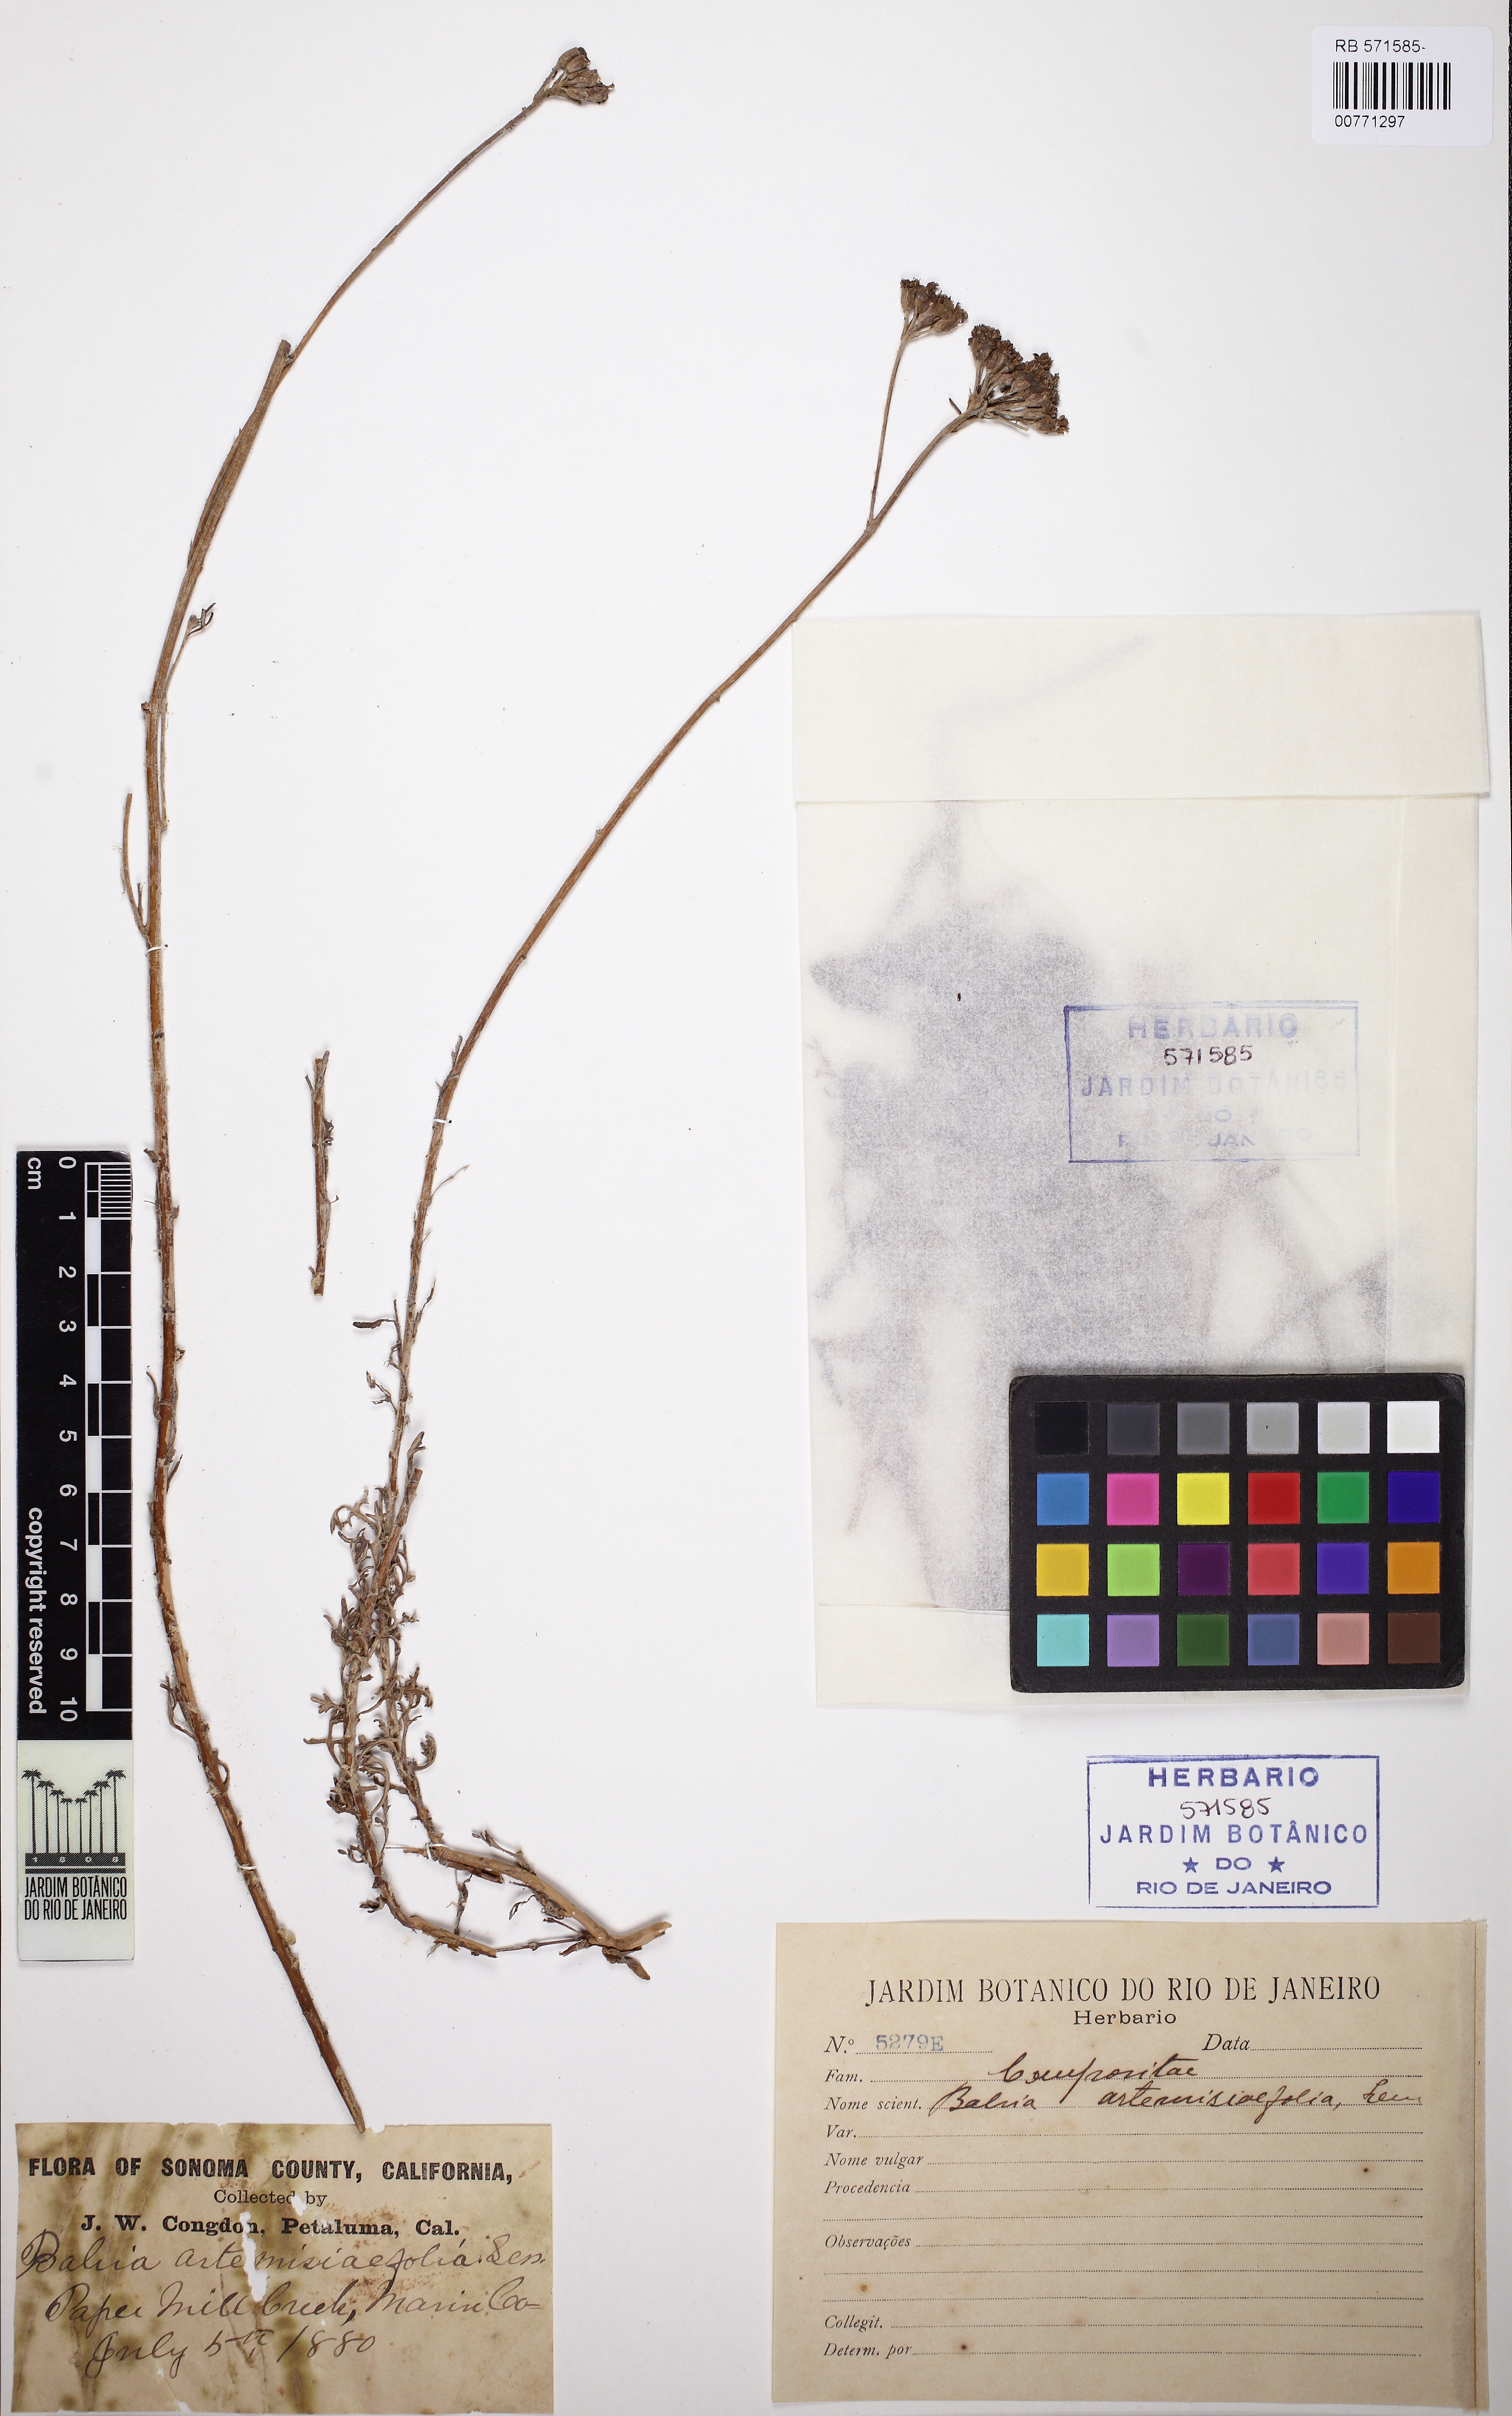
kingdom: Plantae
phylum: Tracheophyta
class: Magnoliopsida
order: Asterales
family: Asteraceae
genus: Eriophyllum
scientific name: Eriophyllum staechadifolium
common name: Lizardtail
